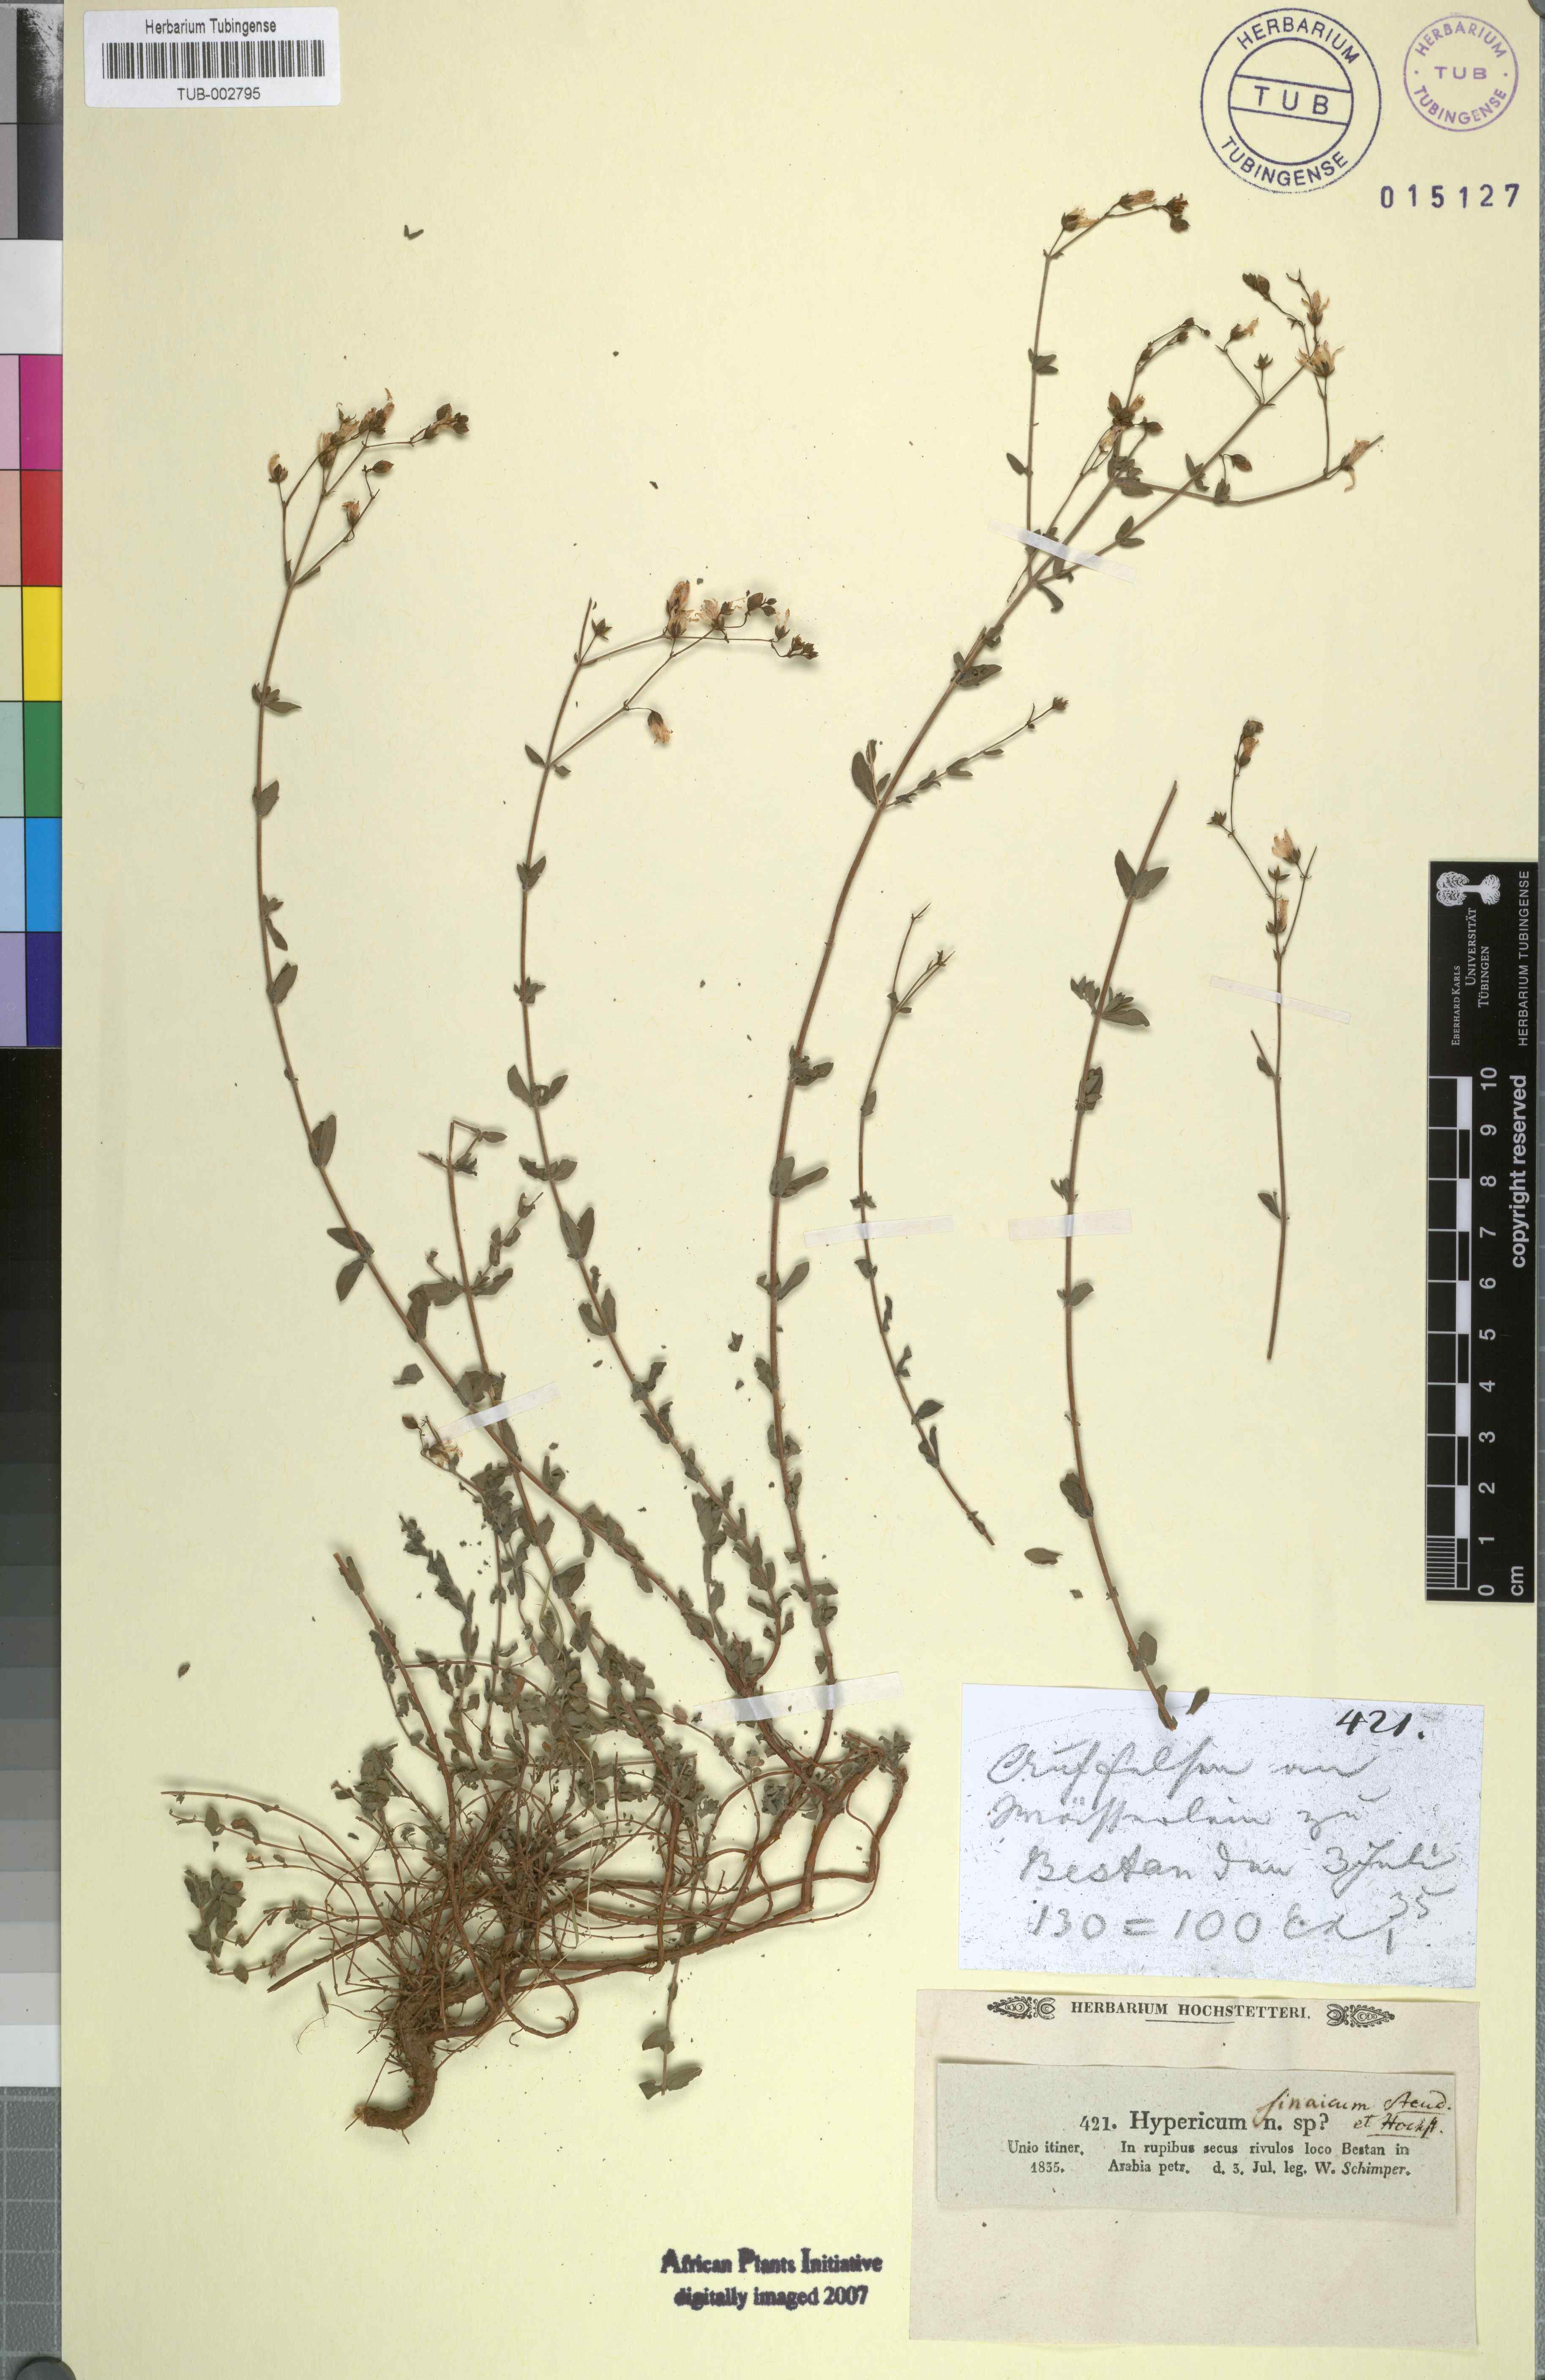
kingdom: Plantae
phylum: Tracheophyta
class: Magnoliopsida
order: Malpighiales
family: Hypericaceae
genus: Hypericum
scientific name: Hypericum sinaicum
